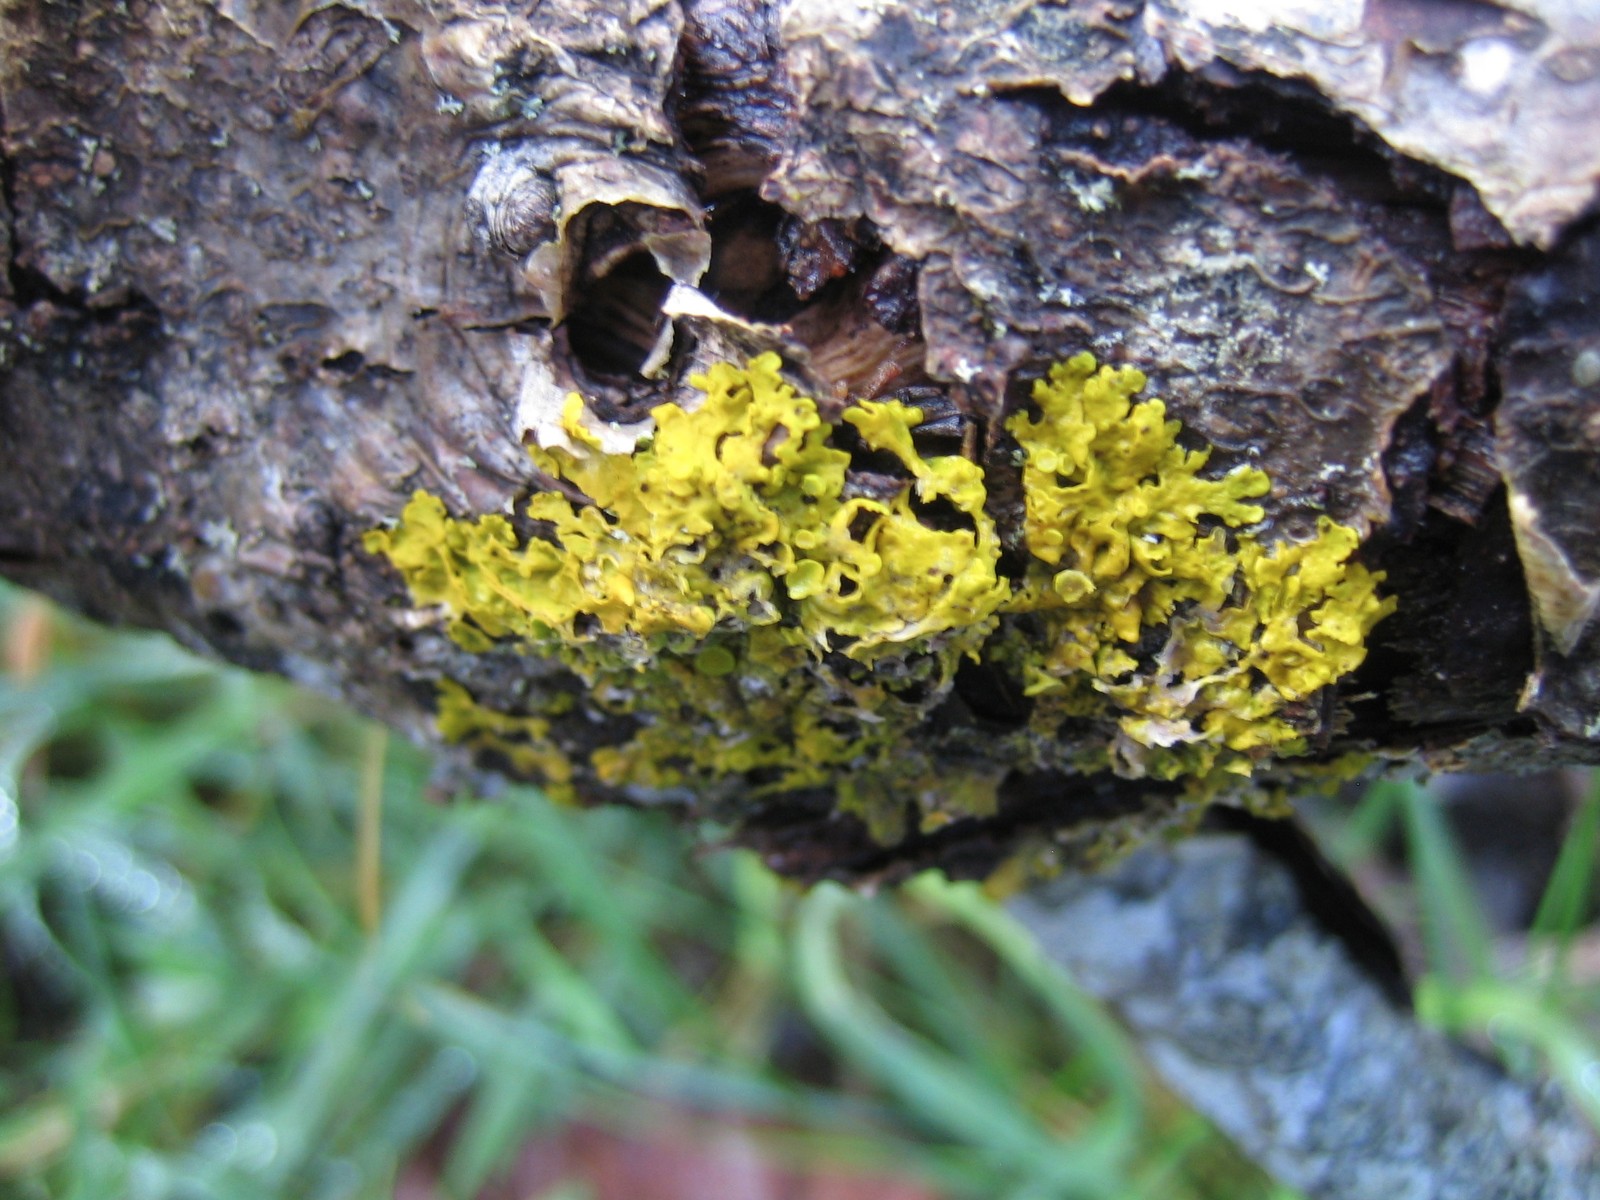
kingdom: Fungi
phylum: Ascomycota
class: Lecanoromycetes
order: Teloschistales
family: Teloschistaceae
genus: Xanthoria
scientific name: Xanthoria parietina
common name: almindelig væggelav
